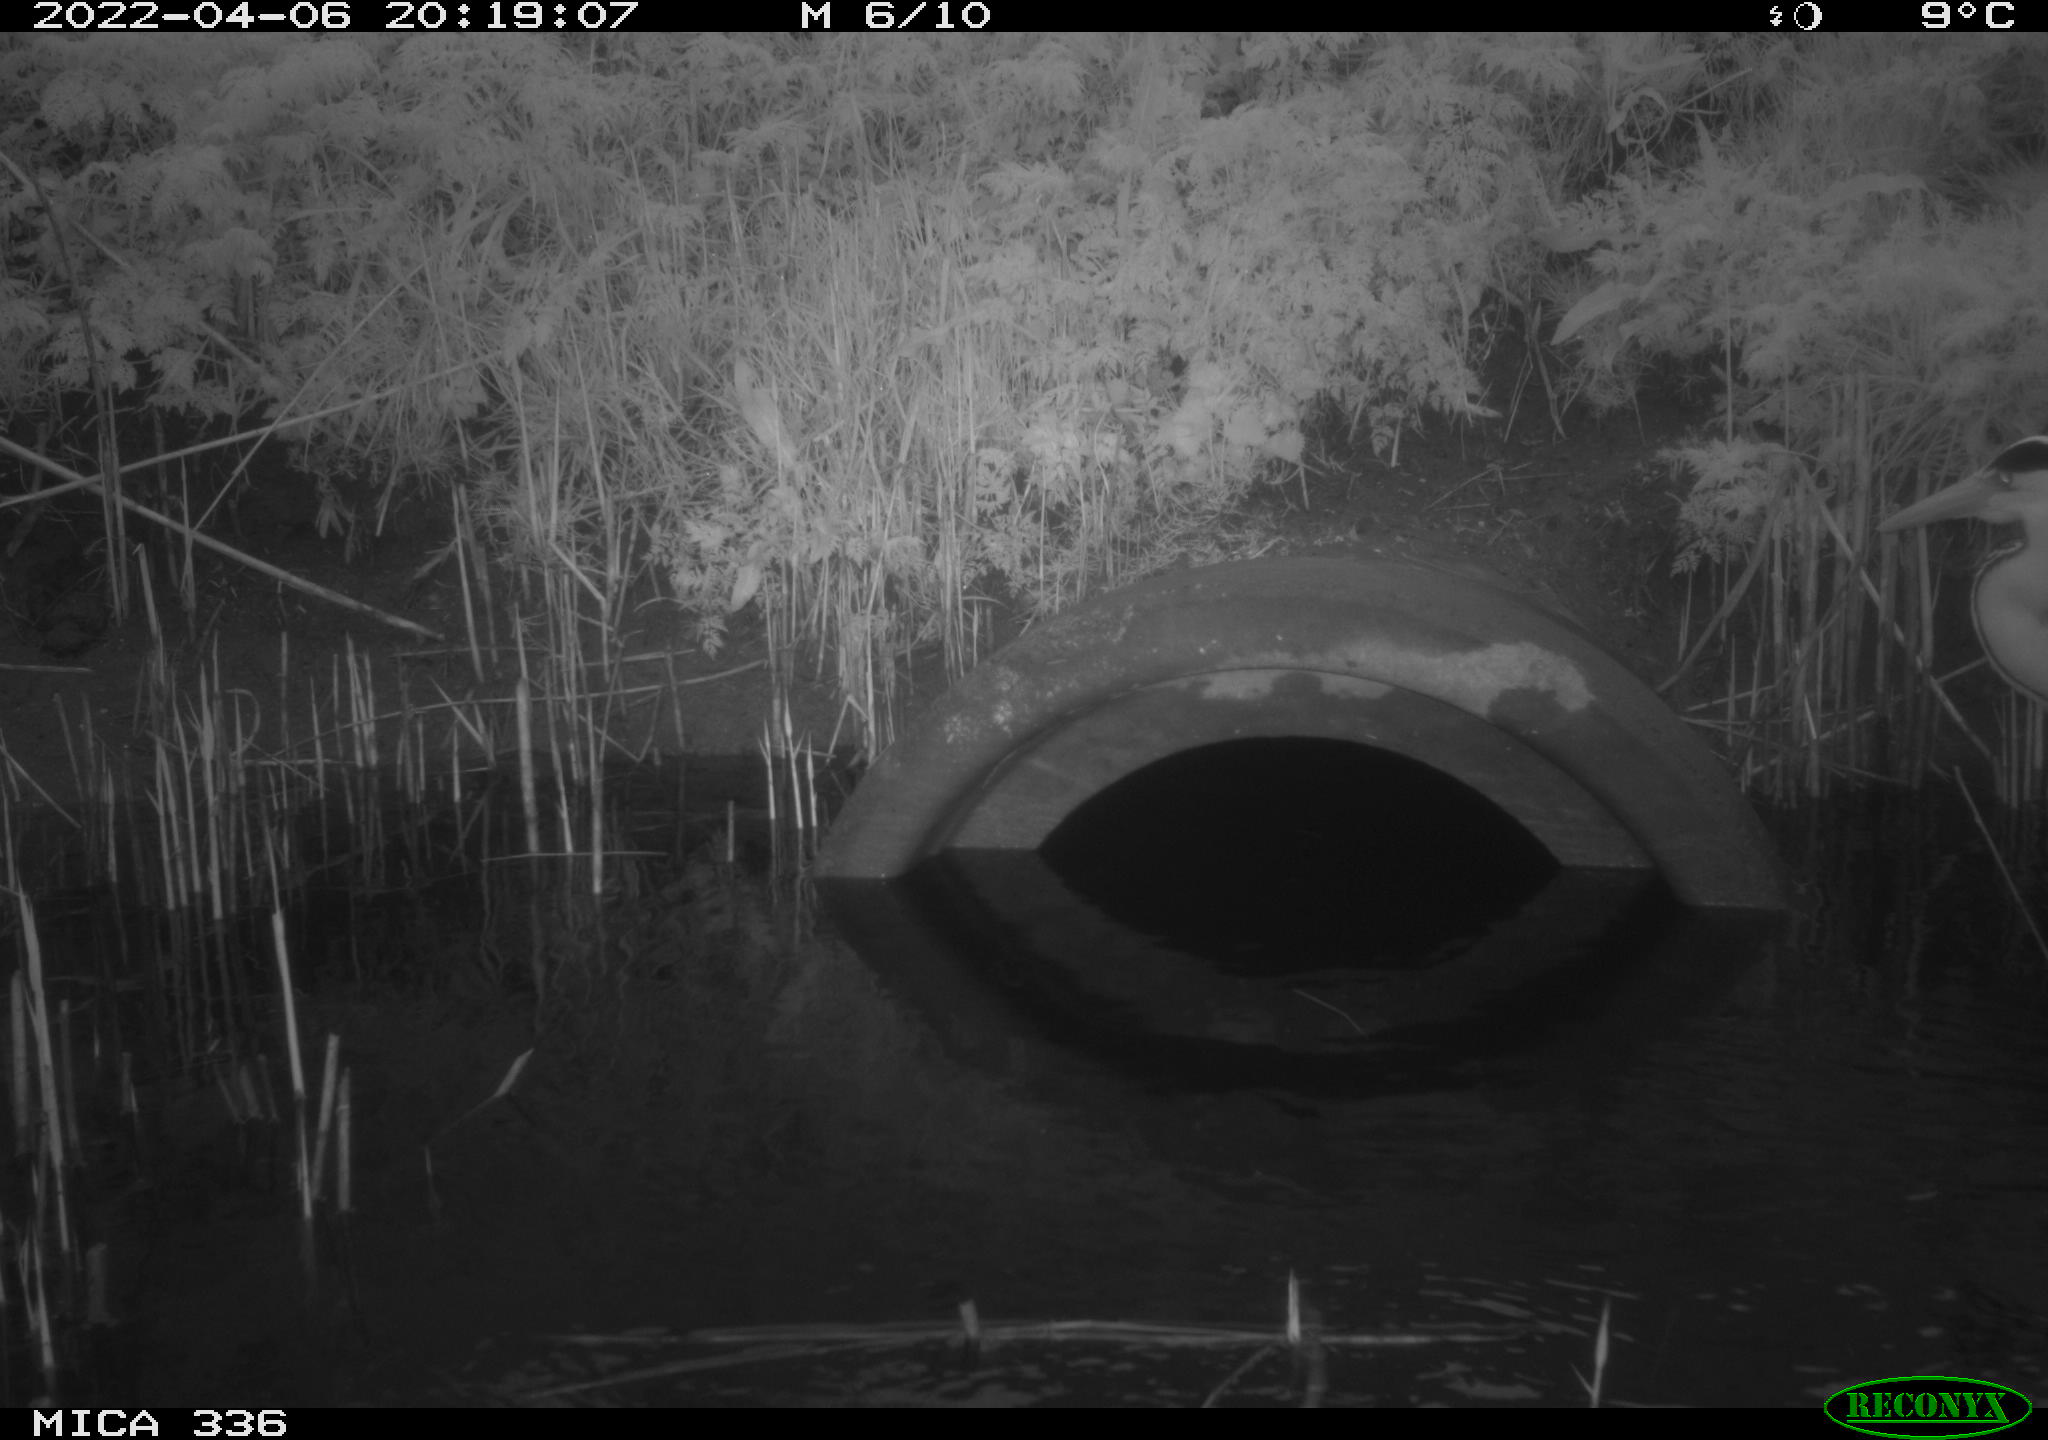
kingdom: Animalia
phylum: Chordata
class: Aves
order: Pelecaniformes
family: Ardeidae
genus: Ardea
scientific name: Ardea cinerea
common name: Grey heron
